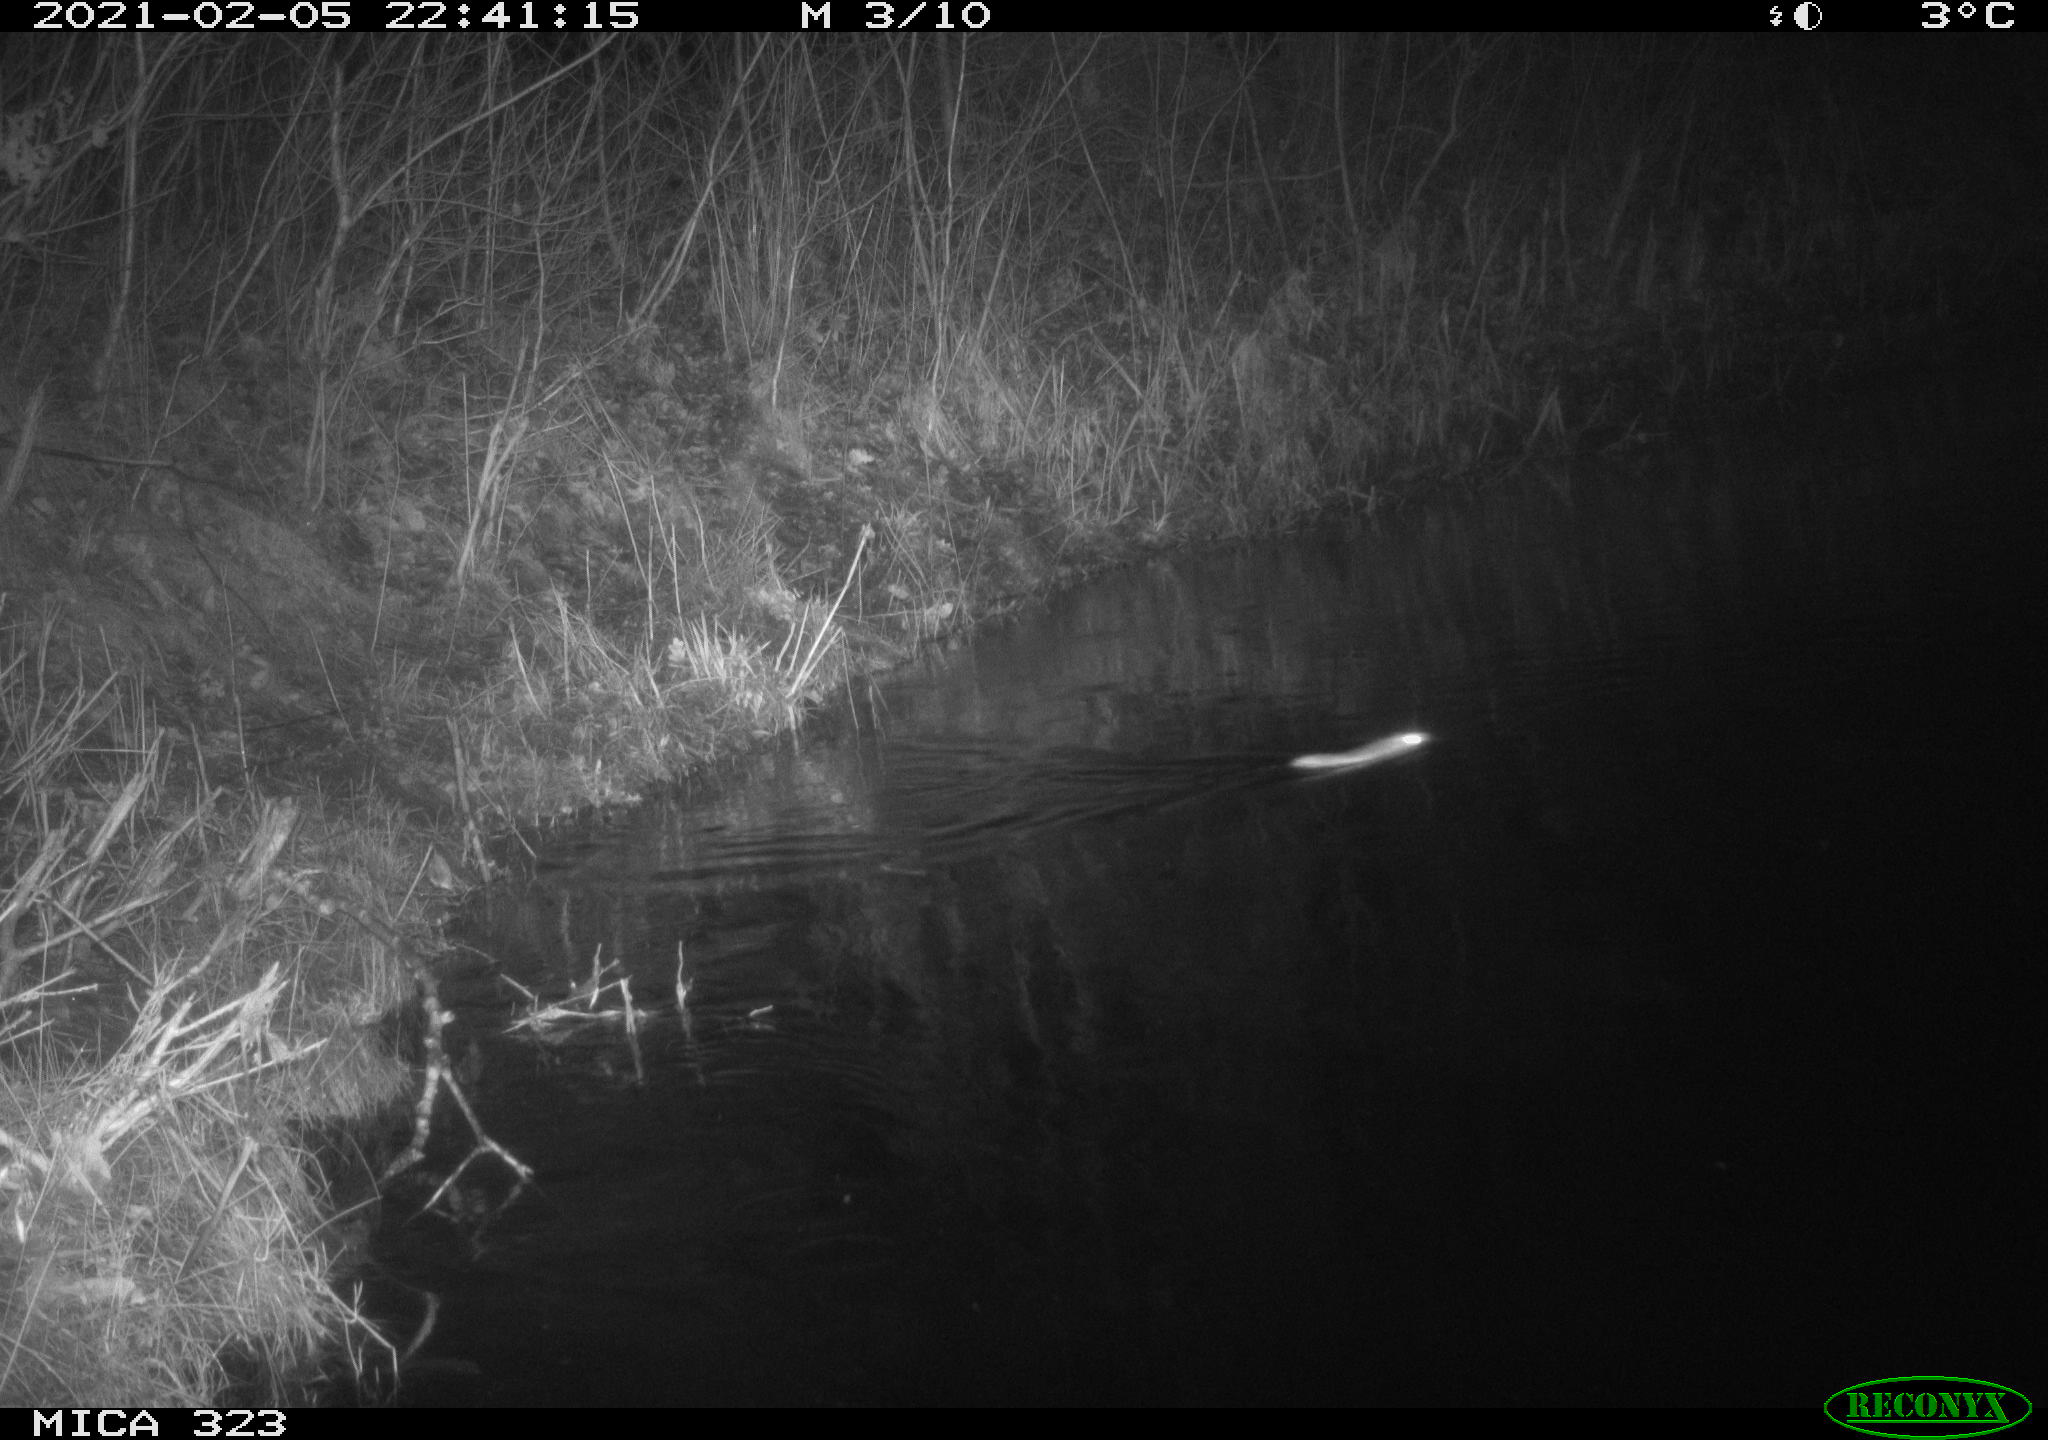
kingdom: Animalia
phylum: Chordata
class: Mammalia
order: Rodentia
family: Muridae
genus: Rattus
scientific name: Rattus norvegicus
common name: Brown rat
